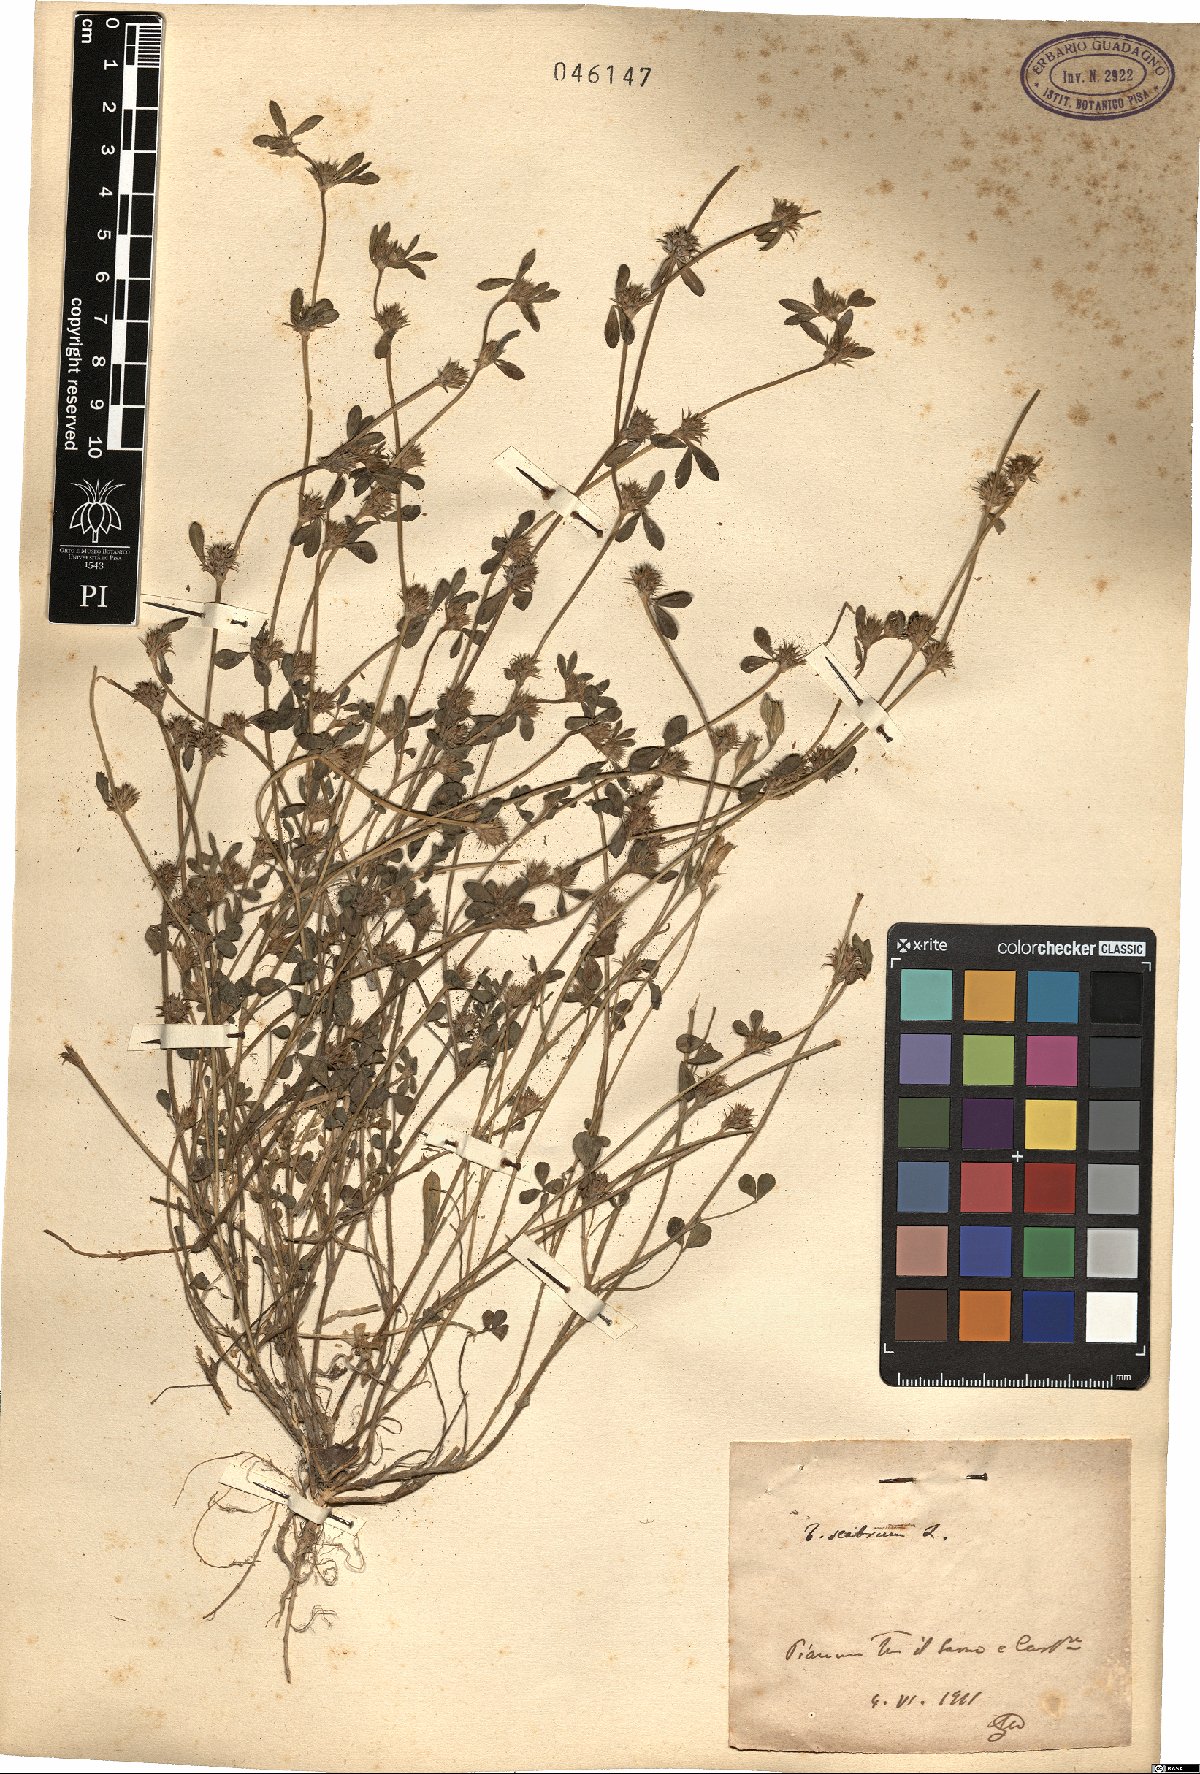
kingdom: Plantae
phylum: Tracheophyta
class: Magnoliopsida
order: Fabales
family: Fabaceae
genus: Trifolium
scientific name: Trifolium scabrum
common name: Rough clover
